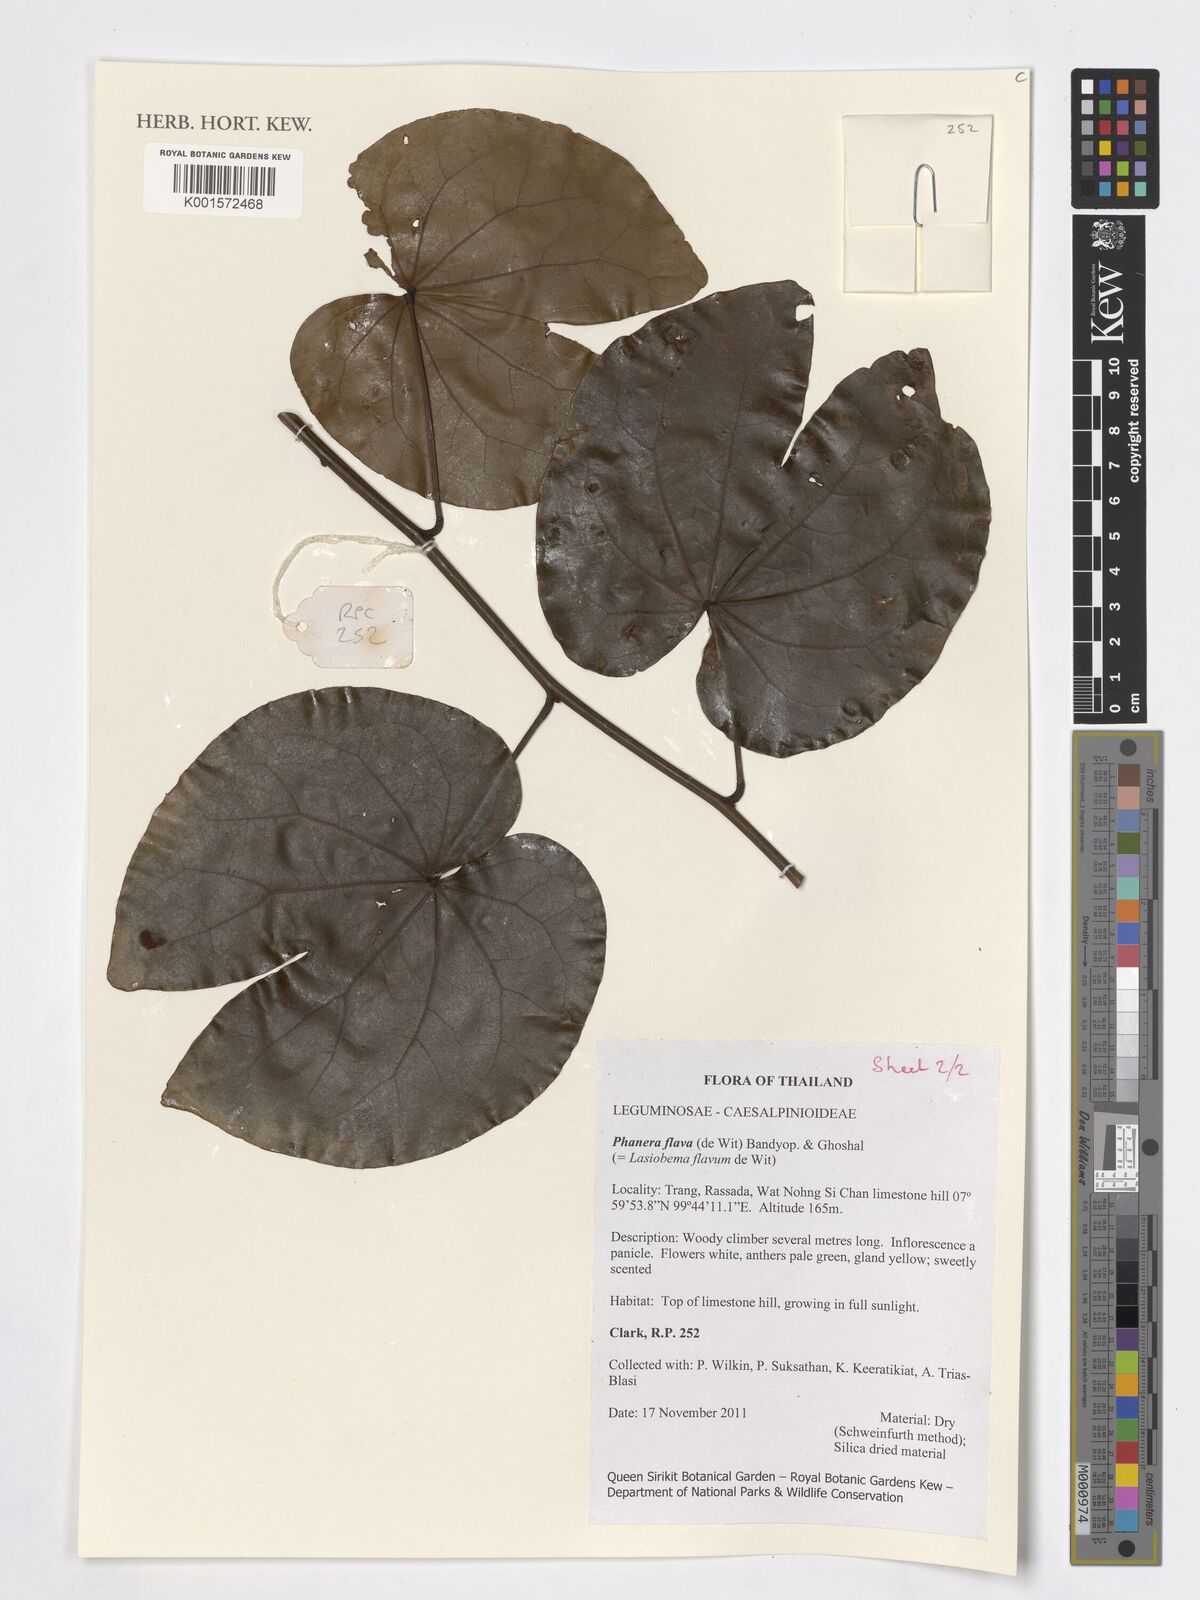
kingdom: Plantae
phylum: Tracheophyta
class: Magnoliopsida
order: Fabales
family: Fabaceae
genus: Phanera
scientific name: Phanera flava
